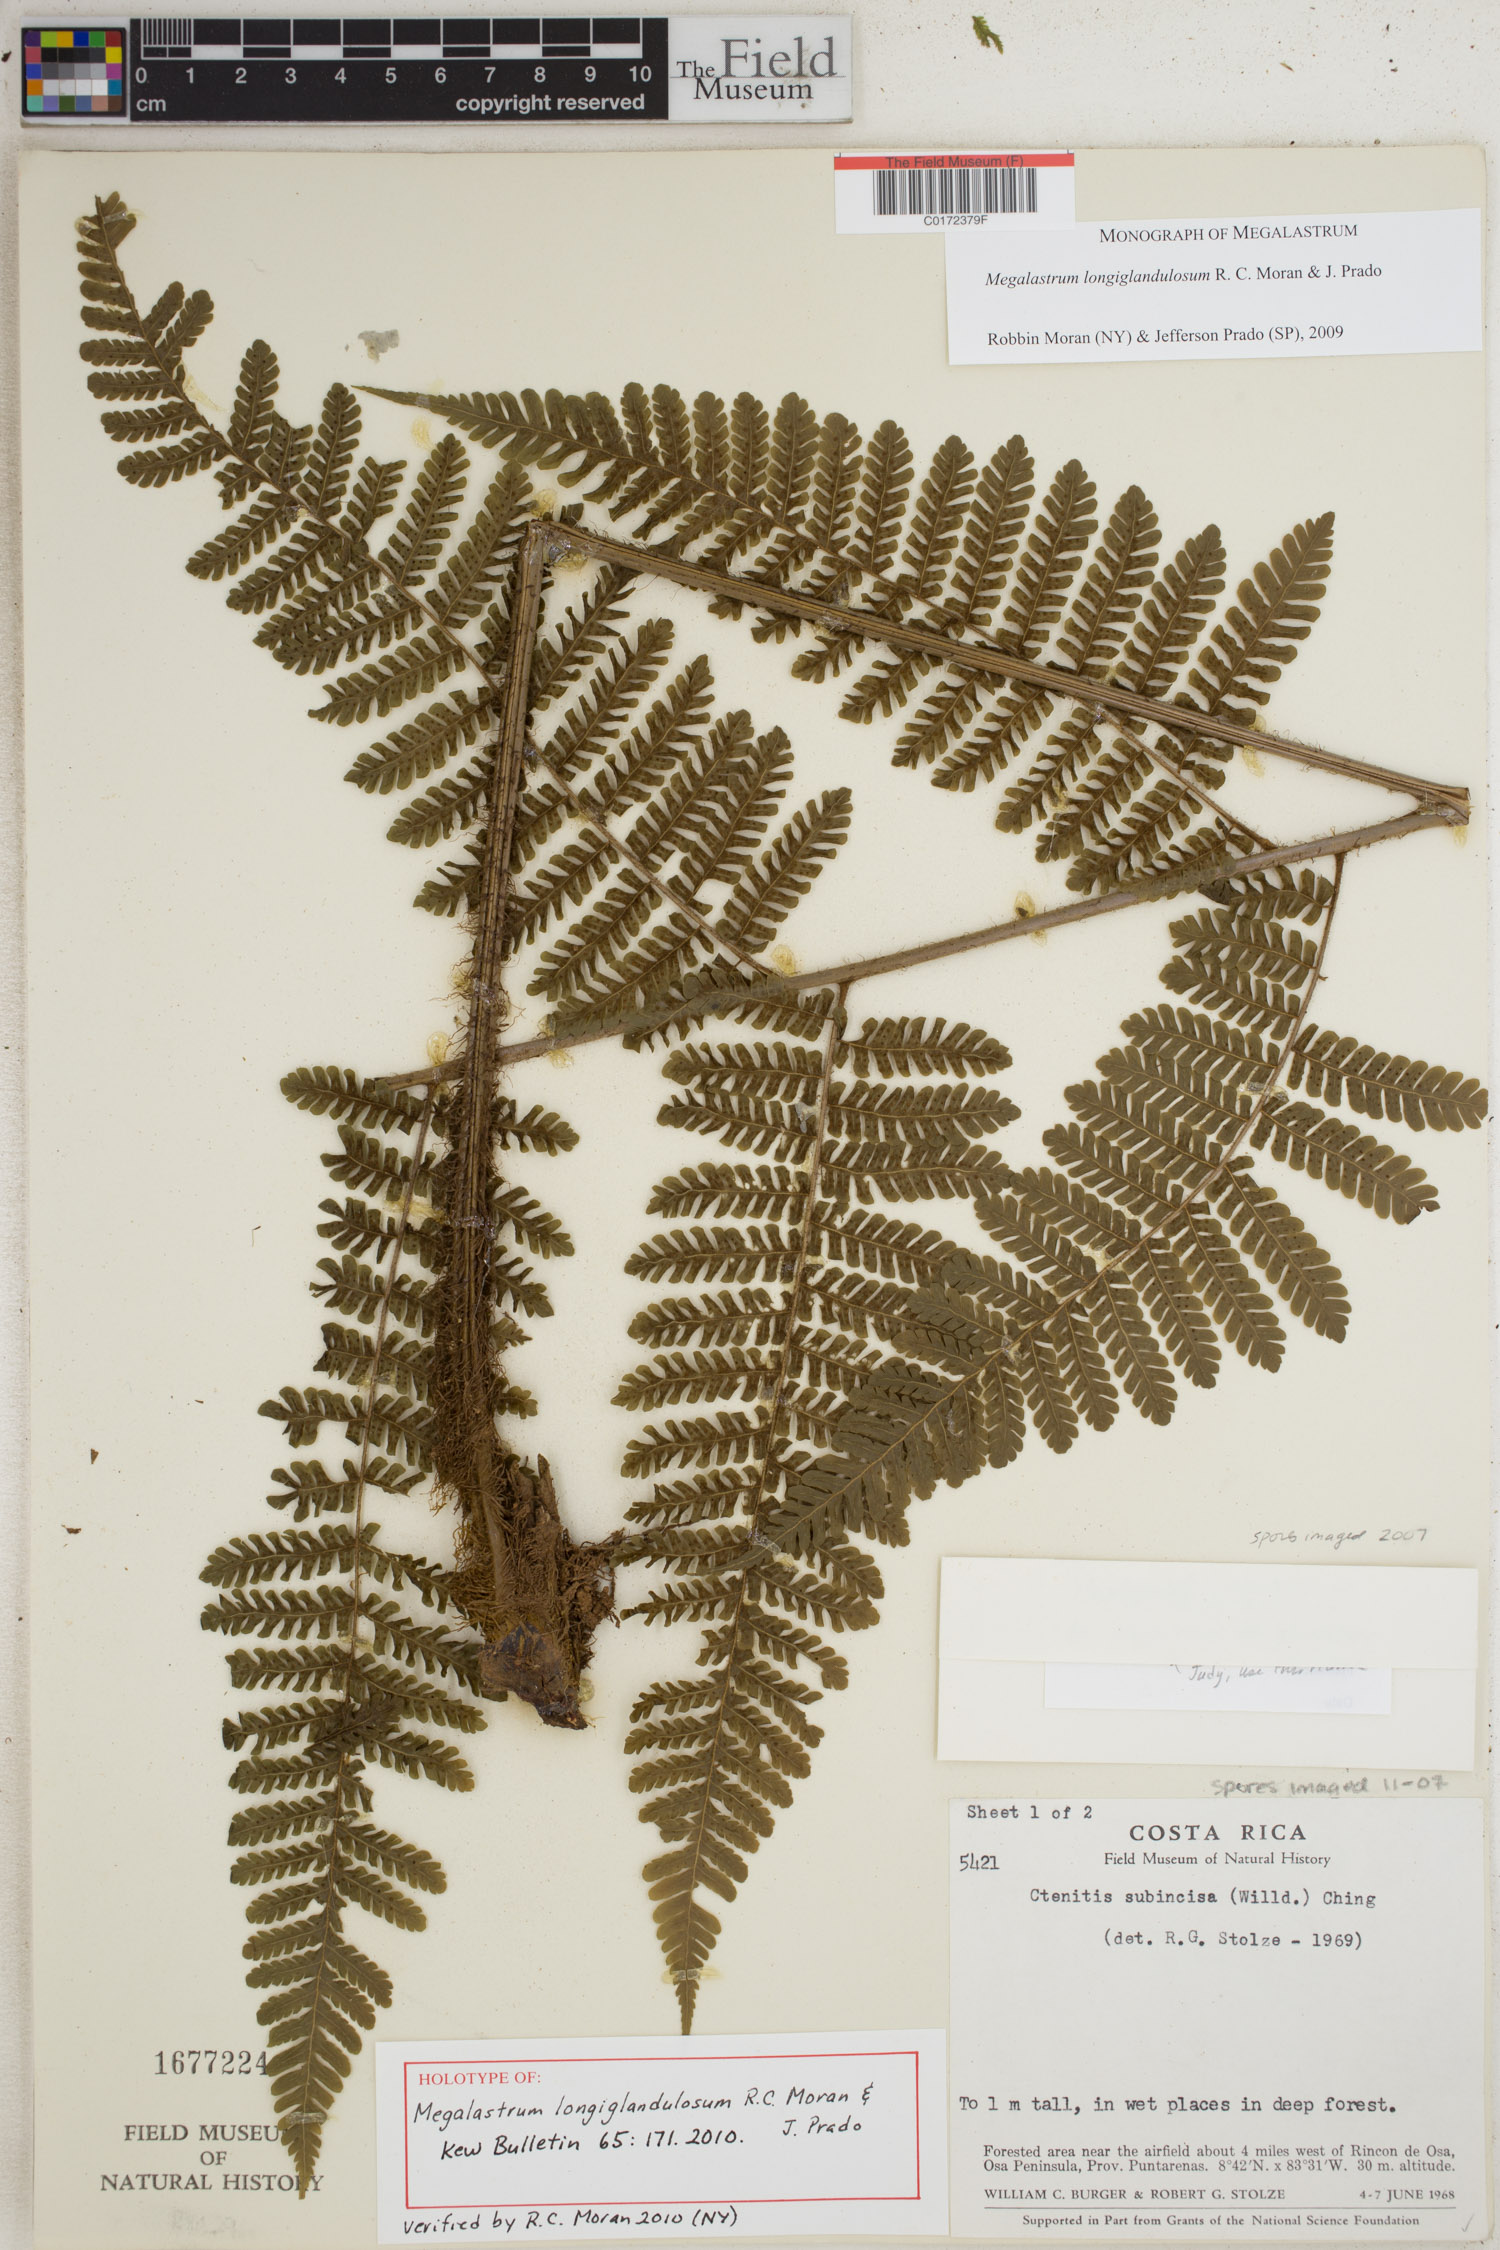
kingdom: Plantae
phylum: Tracheophyta
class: Polypodiopsida
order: Polypodiales
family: Dryopteridaceae
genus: Megalastrum
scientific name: Megalastrum longiglandulosum
